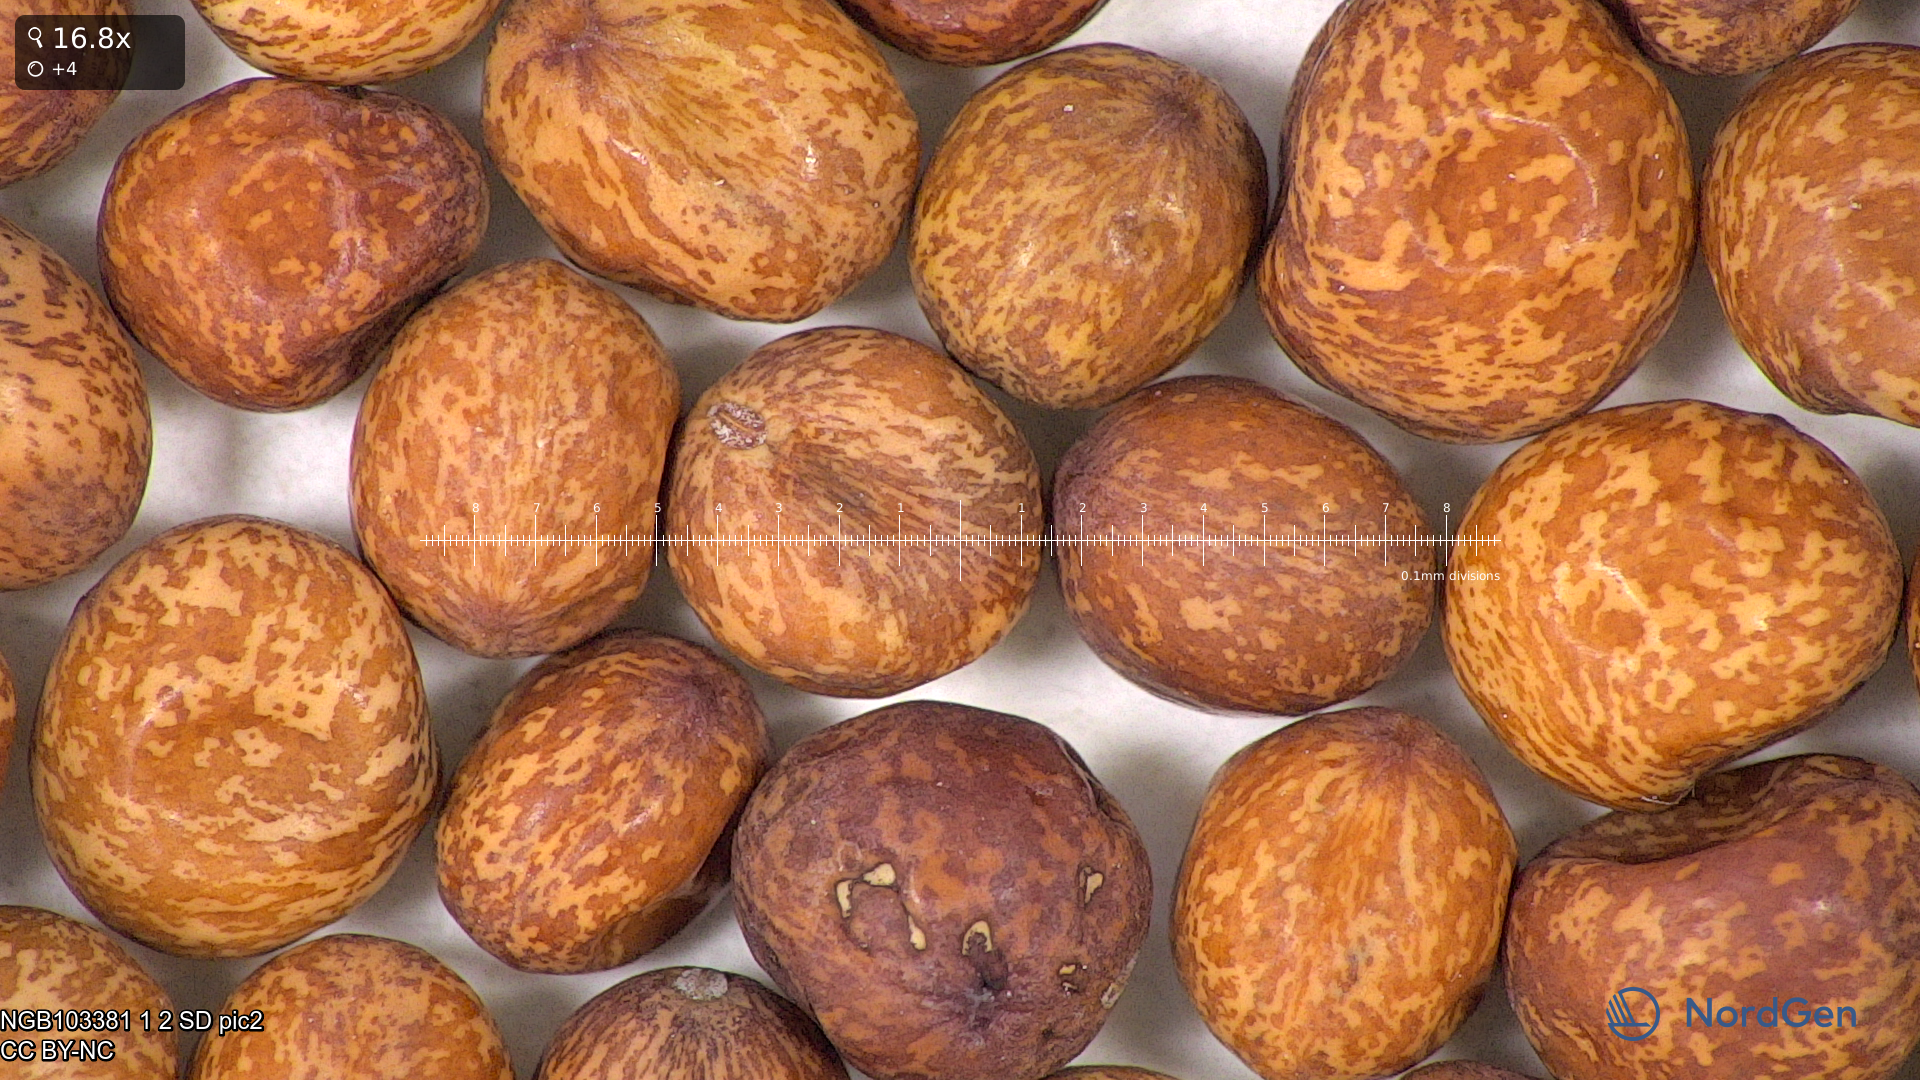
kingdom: Plantae
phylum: Tracheophyta
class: Magnoliopsida
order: Fabales
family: Fabaceae
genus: Lathyrus
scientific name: Lathyrus oleraceus
